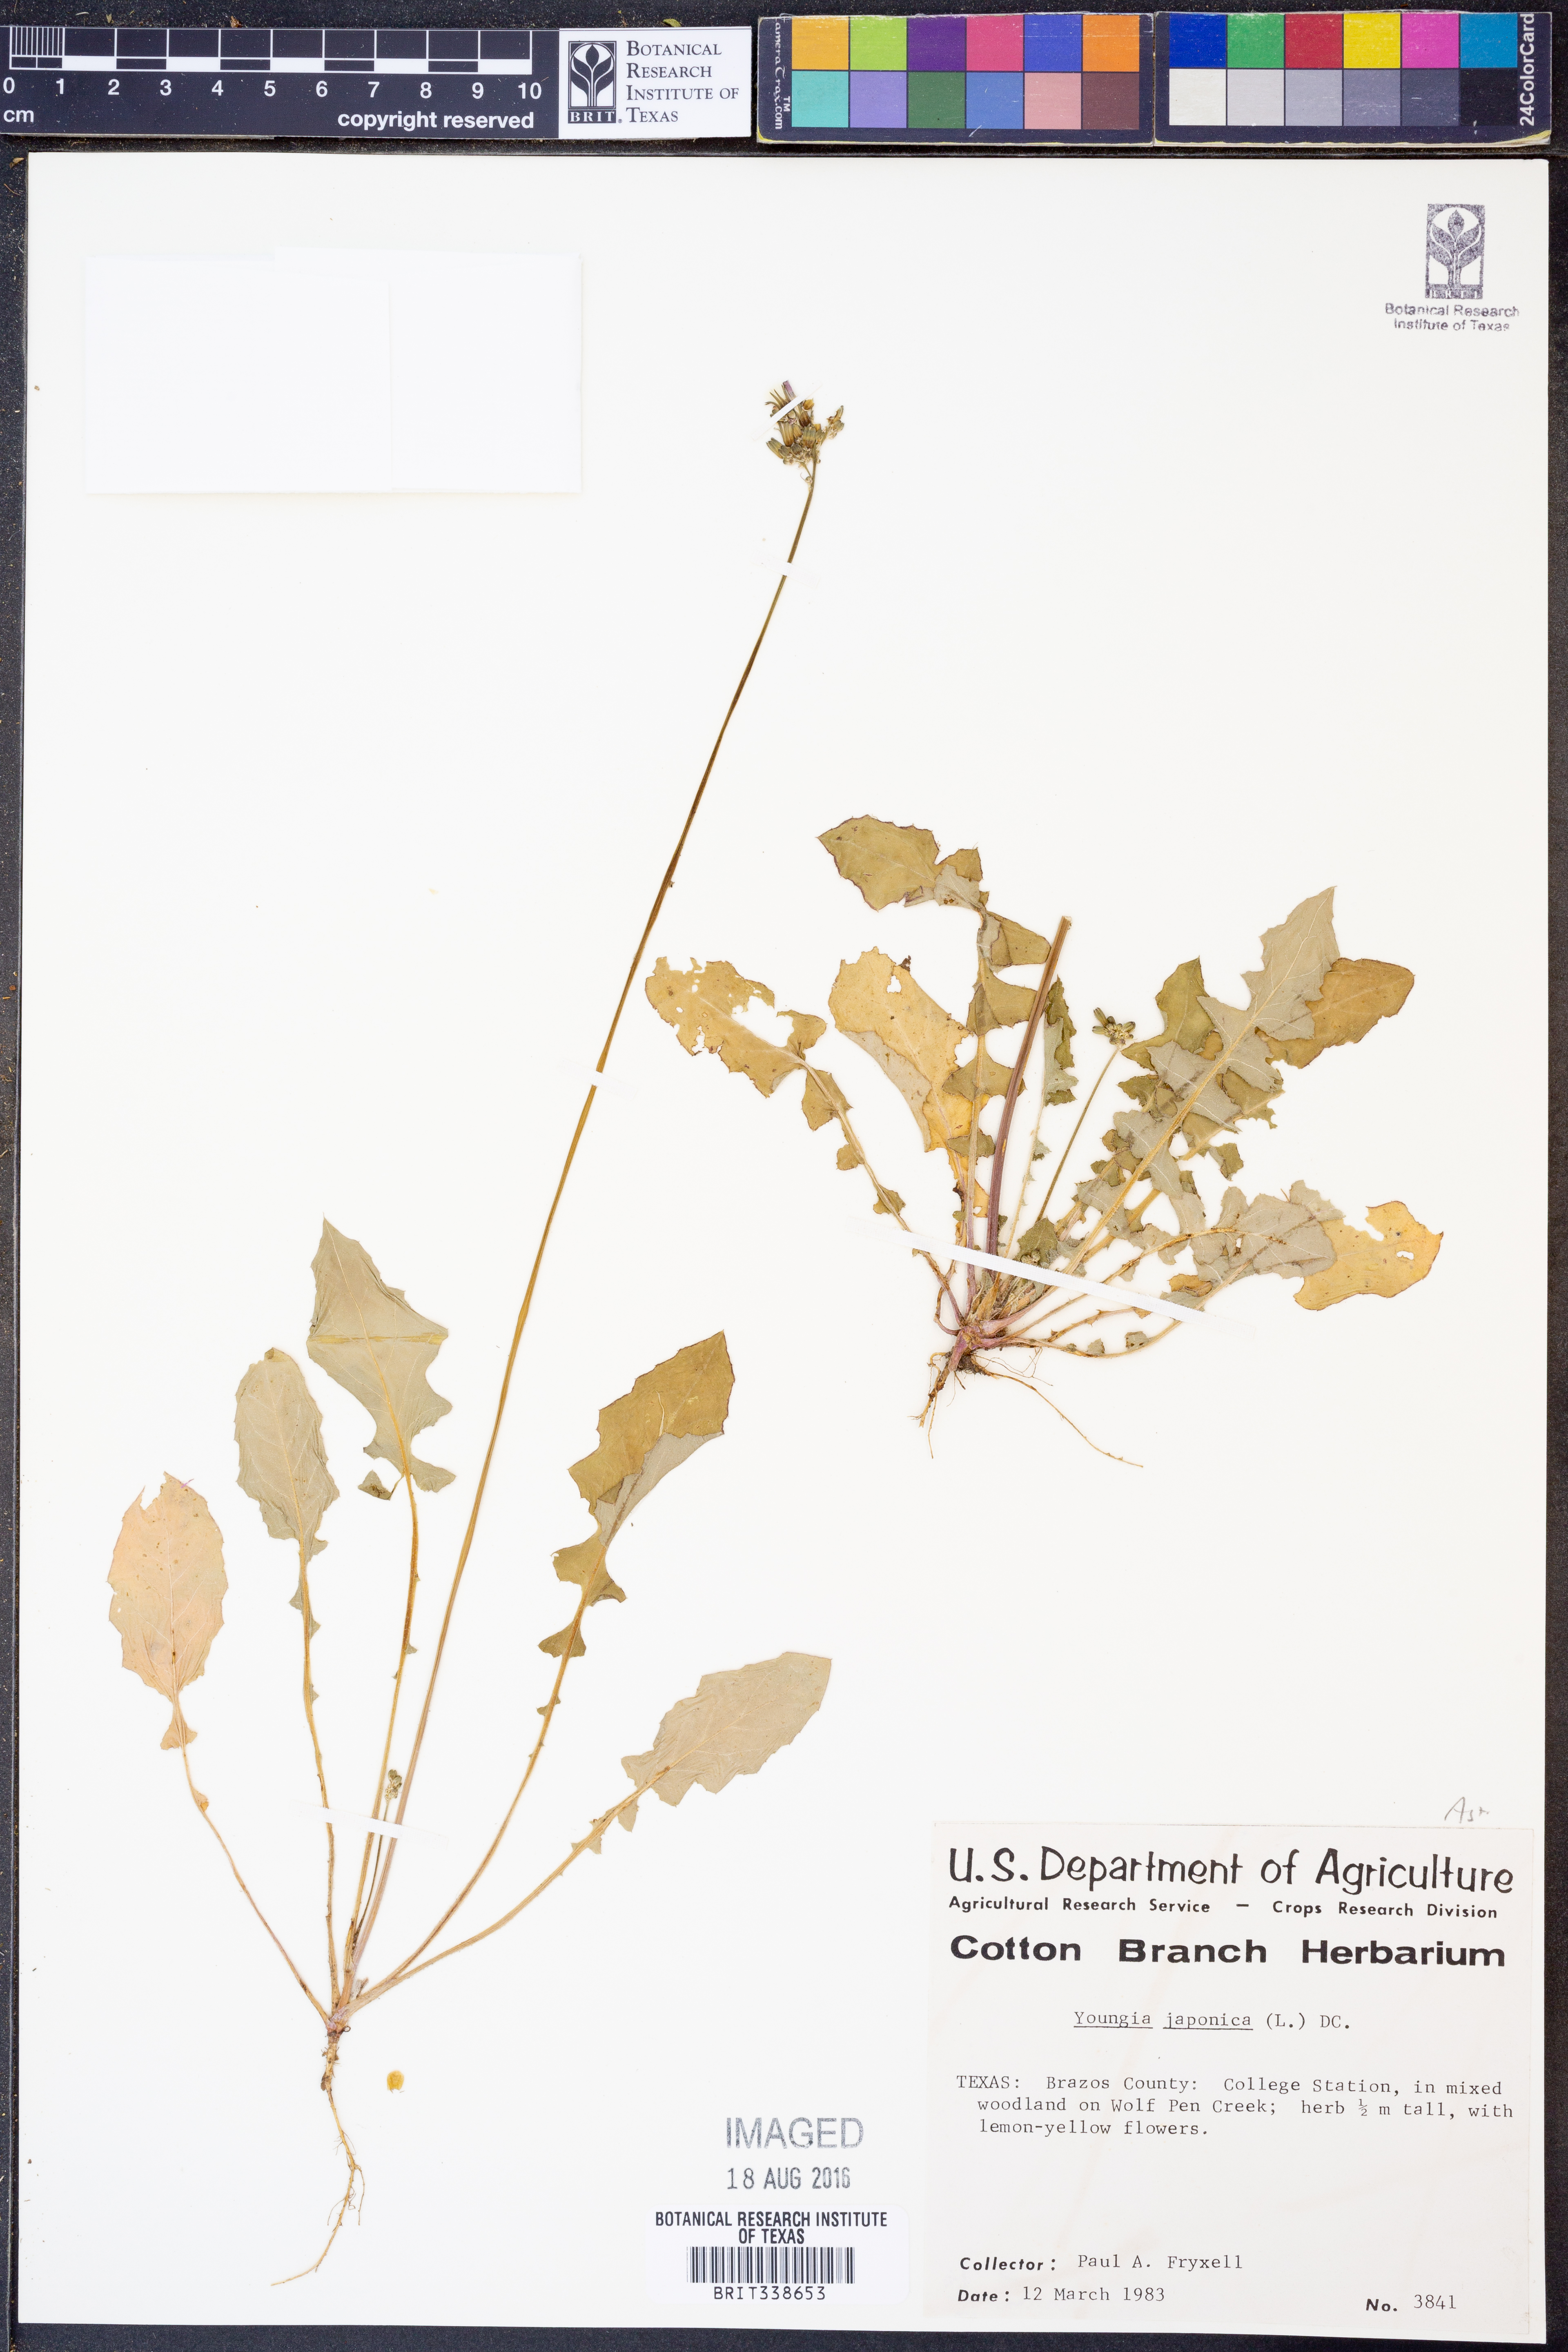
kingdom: Plantae
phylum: Tracheophyta
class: Magnoliopsida
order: Asterales
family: Asteraceae
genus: Youngia
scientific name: Youngia japonica
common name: Oriental false hawksbeard
